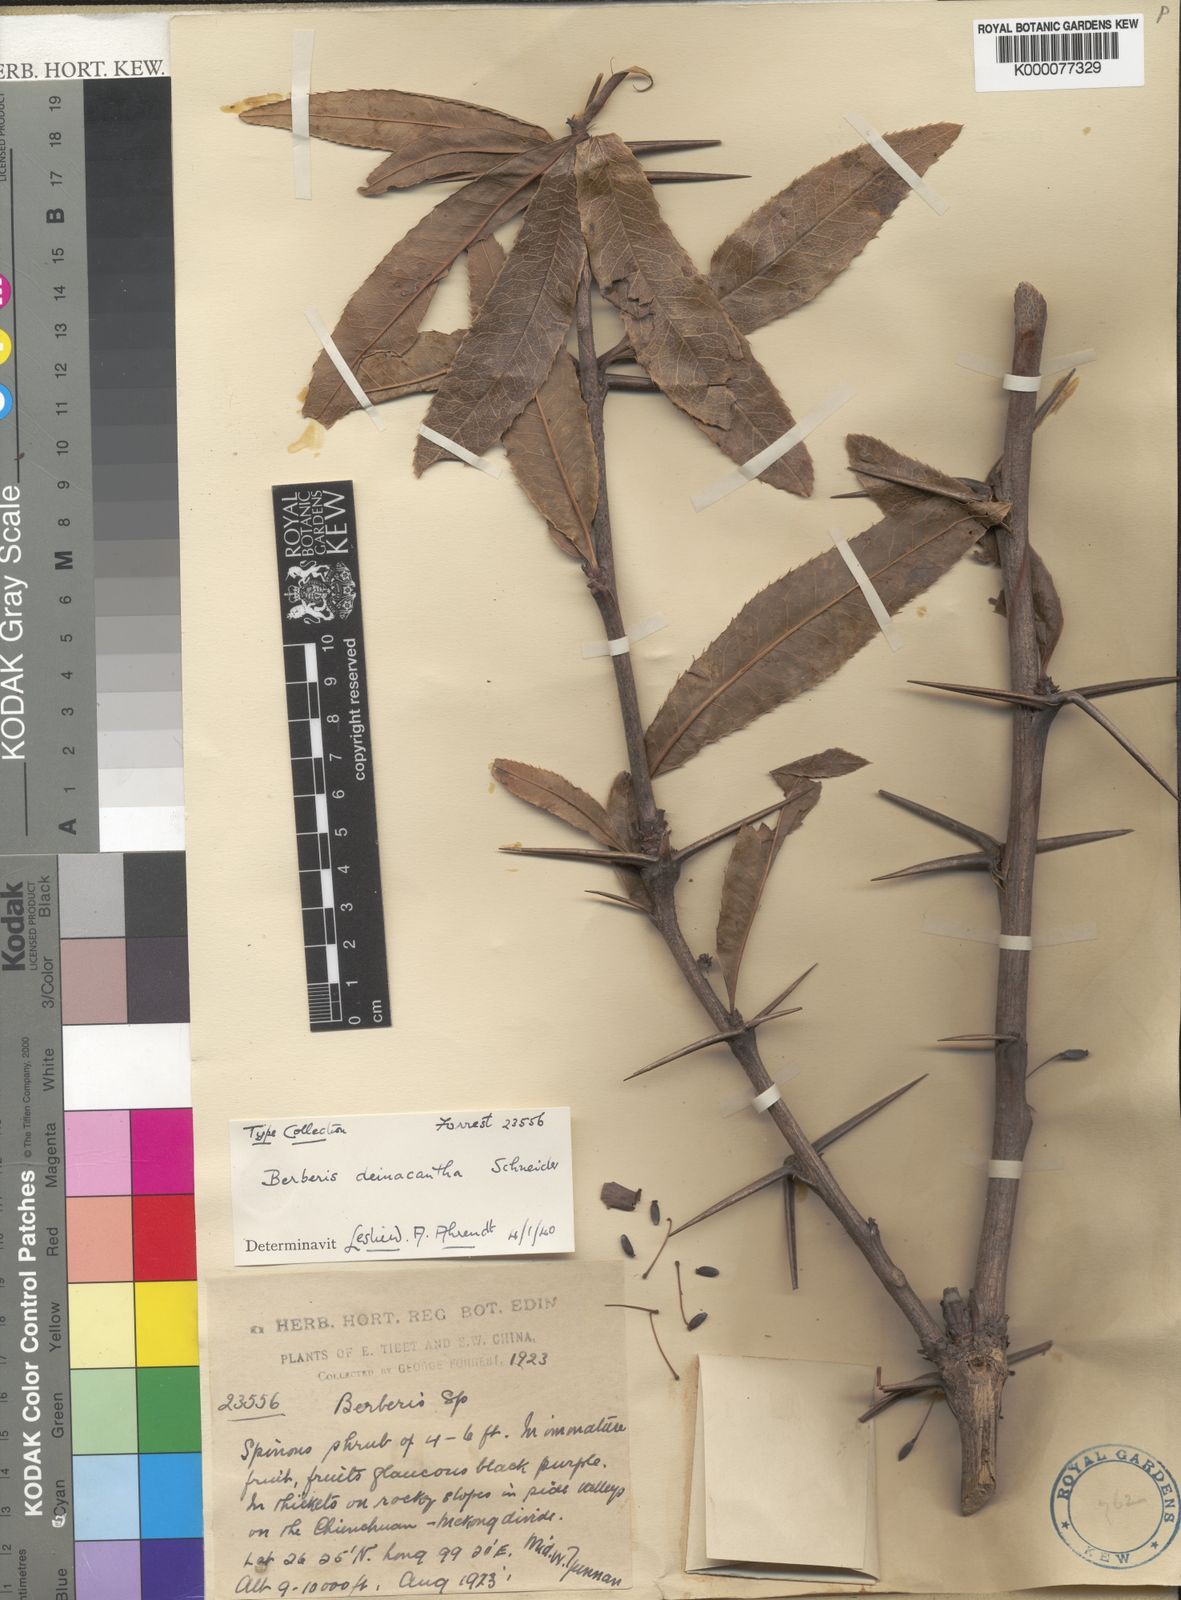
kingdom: Plantae
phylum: Tracheophyta
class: Magnoliopsida
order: Ranunculales
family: Berberidaceae
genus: Berberis
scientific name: Berberis deinacantha
